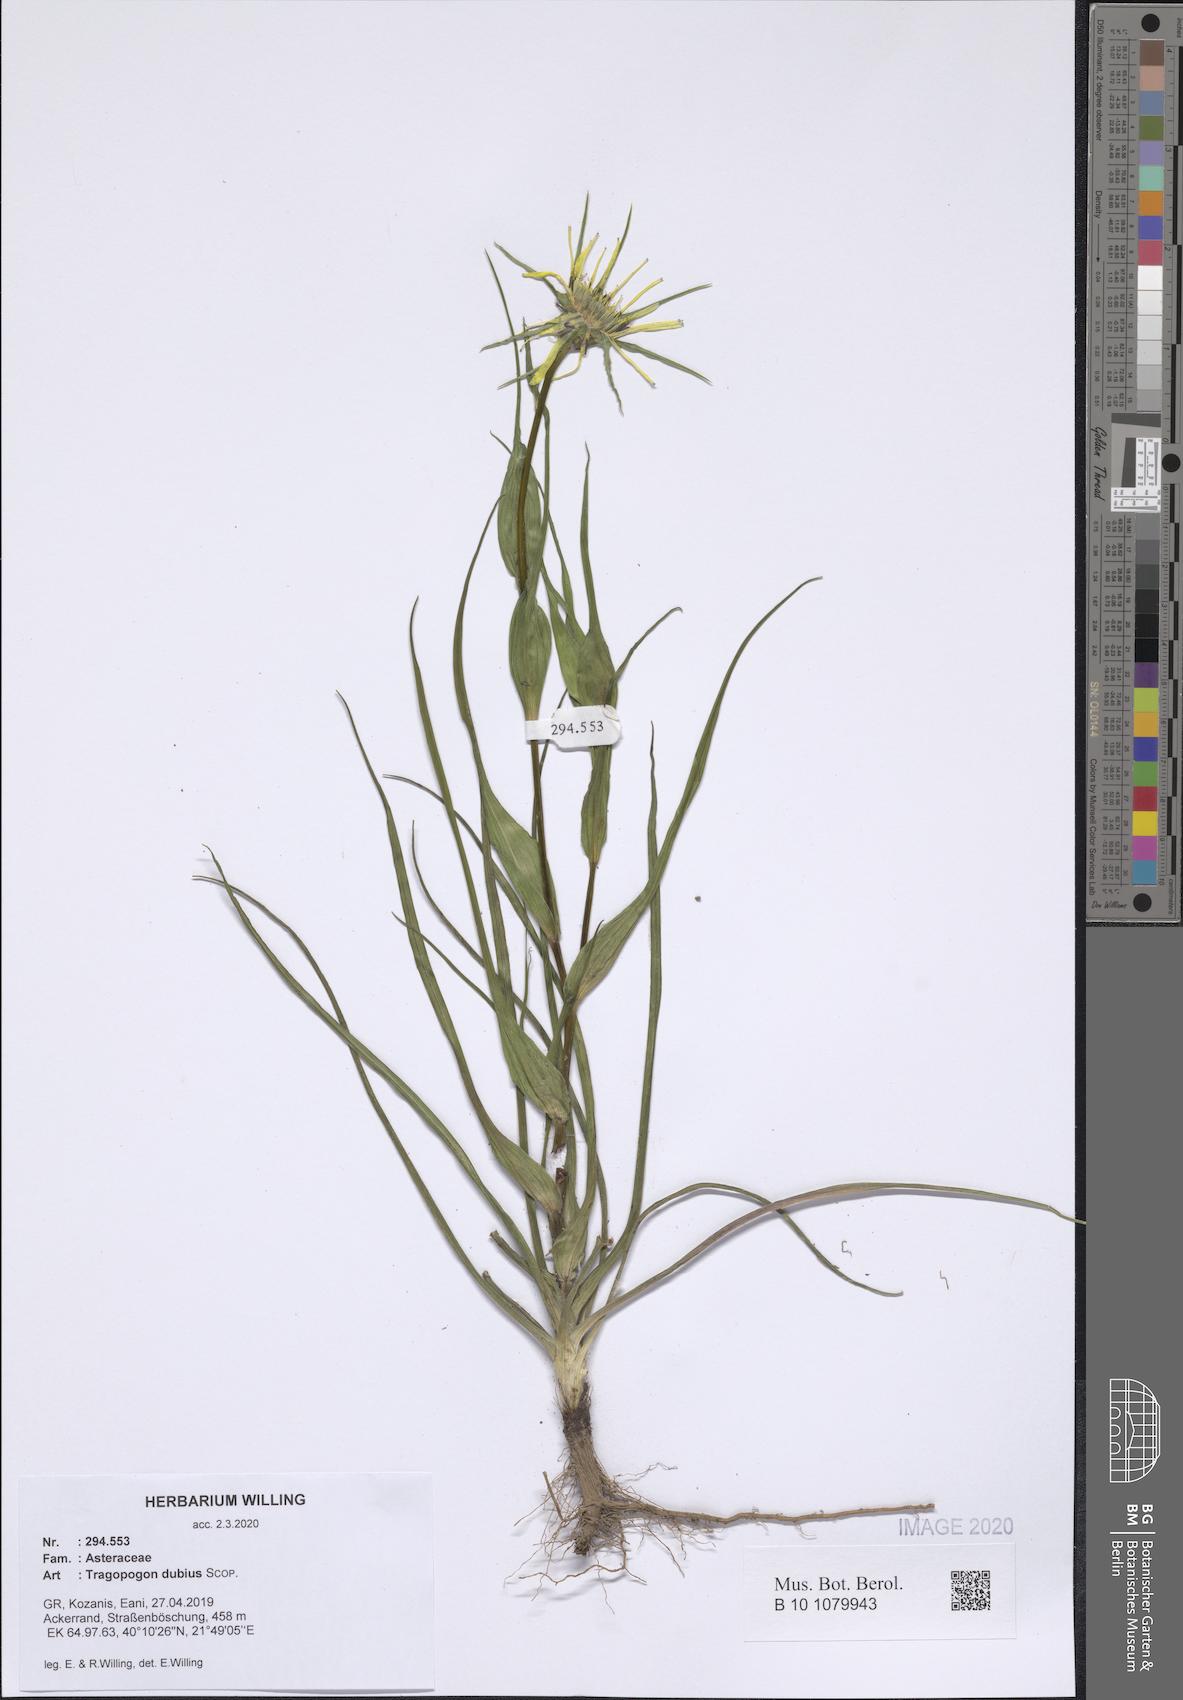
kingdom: Plantae
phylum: Tracheophyta
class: Magnoliopsida
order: Asterales
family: Asteraceae
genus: Tragopogon
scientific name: Tragopogon dubius
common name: Yellow salsify
